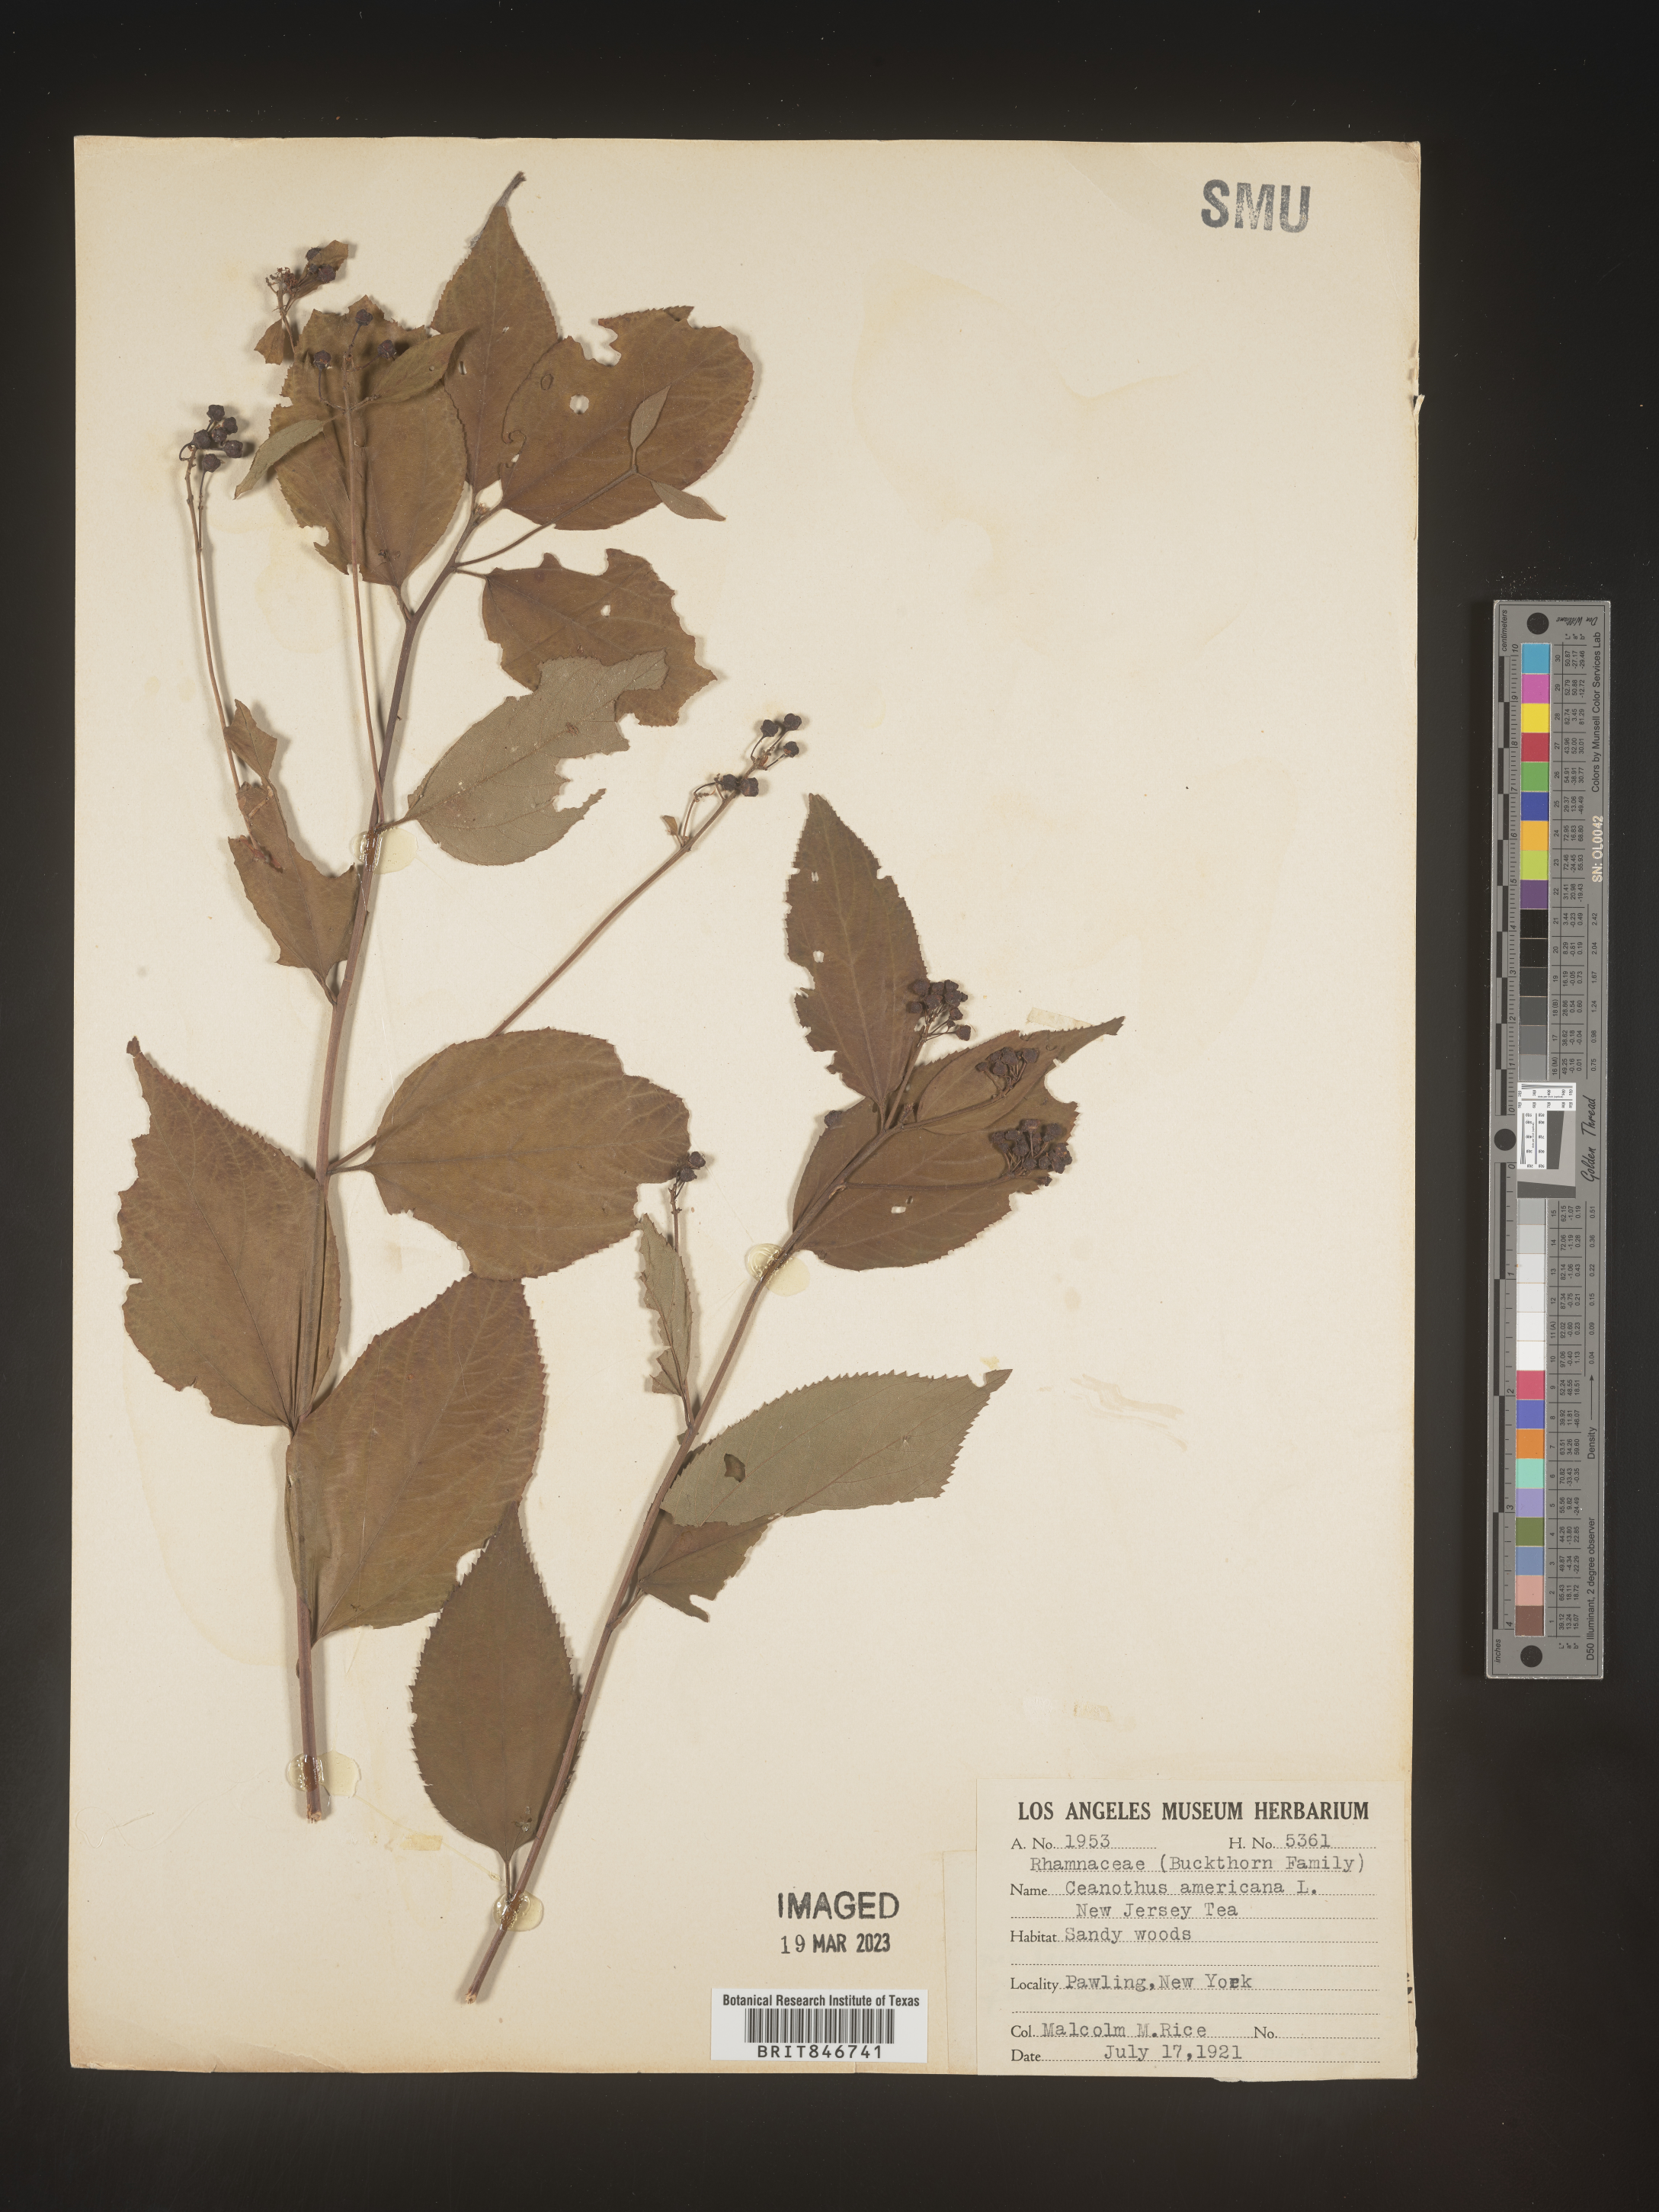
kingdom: Plantae
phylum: Tracheophyta
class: Magnoliopsida
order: Rosales
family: Rhamnaceae
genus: Ceanothus
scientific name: Ceanothus americanus
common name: Redroot
